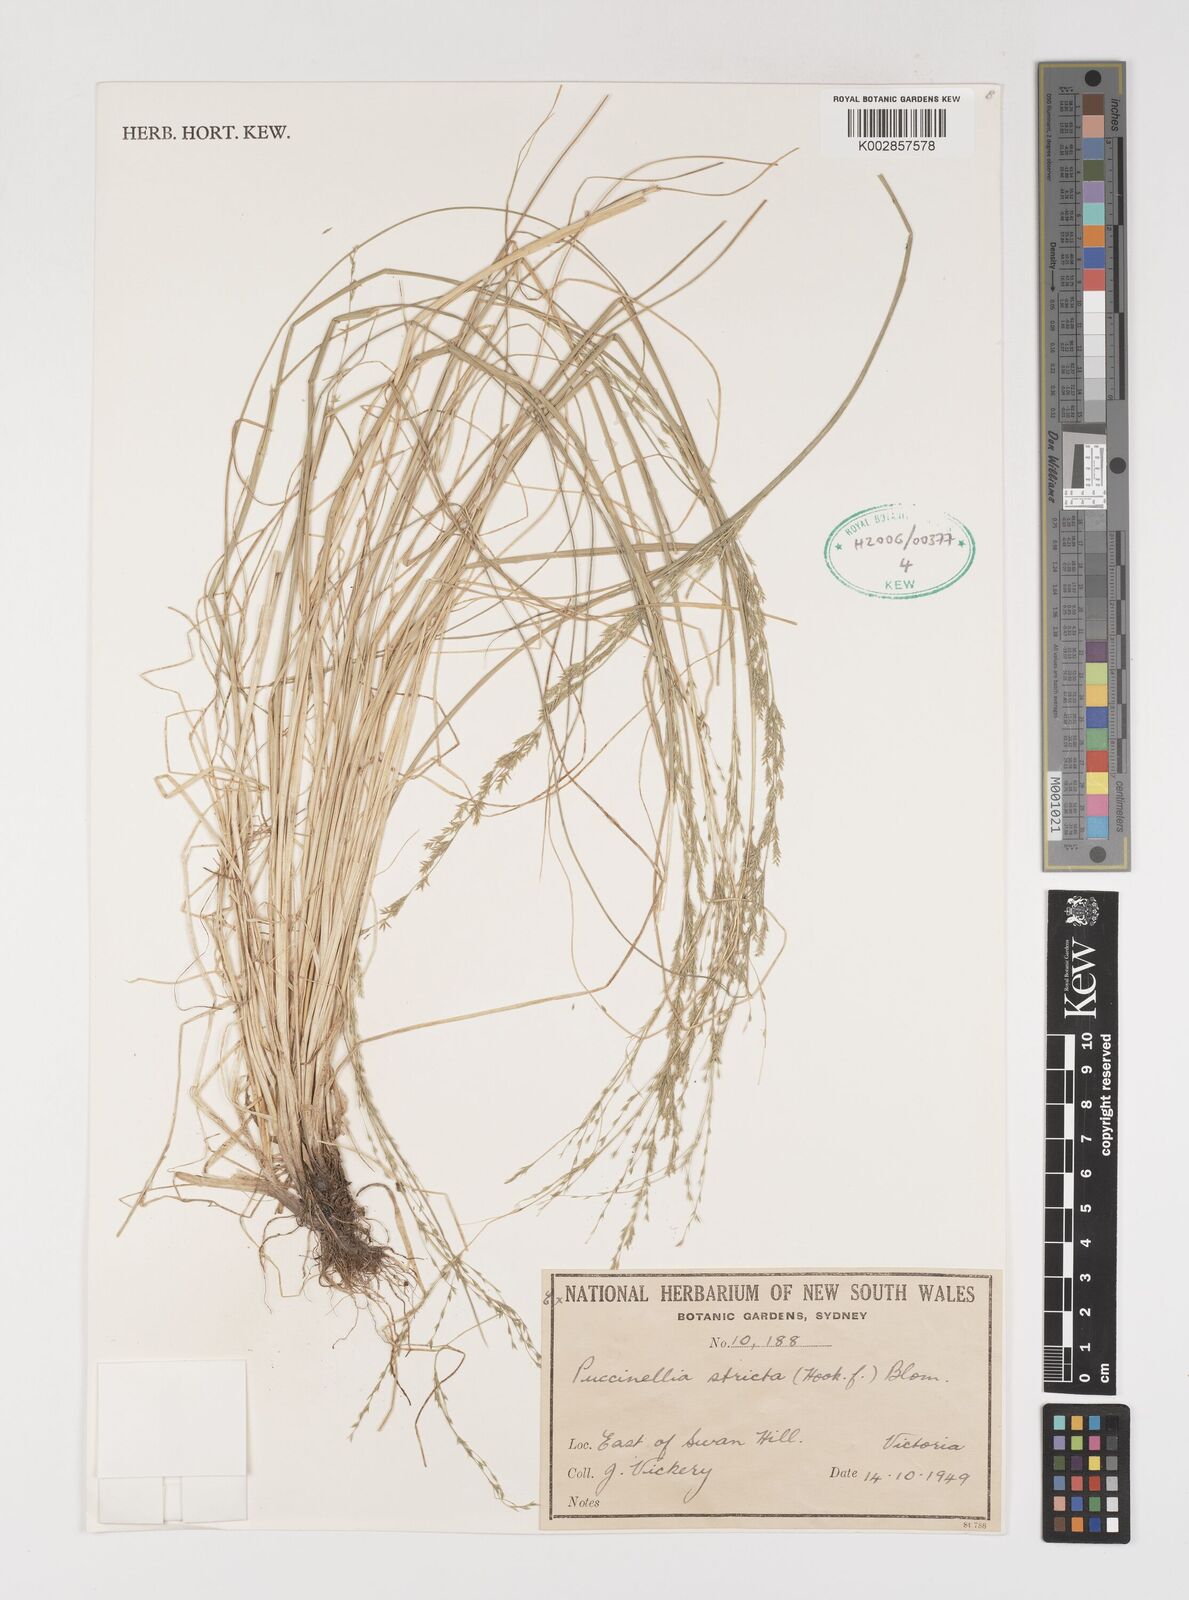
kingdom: Plantae
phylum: Tracheophyta
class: Liliopsida
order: Poales
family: Poaceae
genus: Puccinellia
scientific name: Puccinellia stricta
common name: Australian saltmarsh grass
